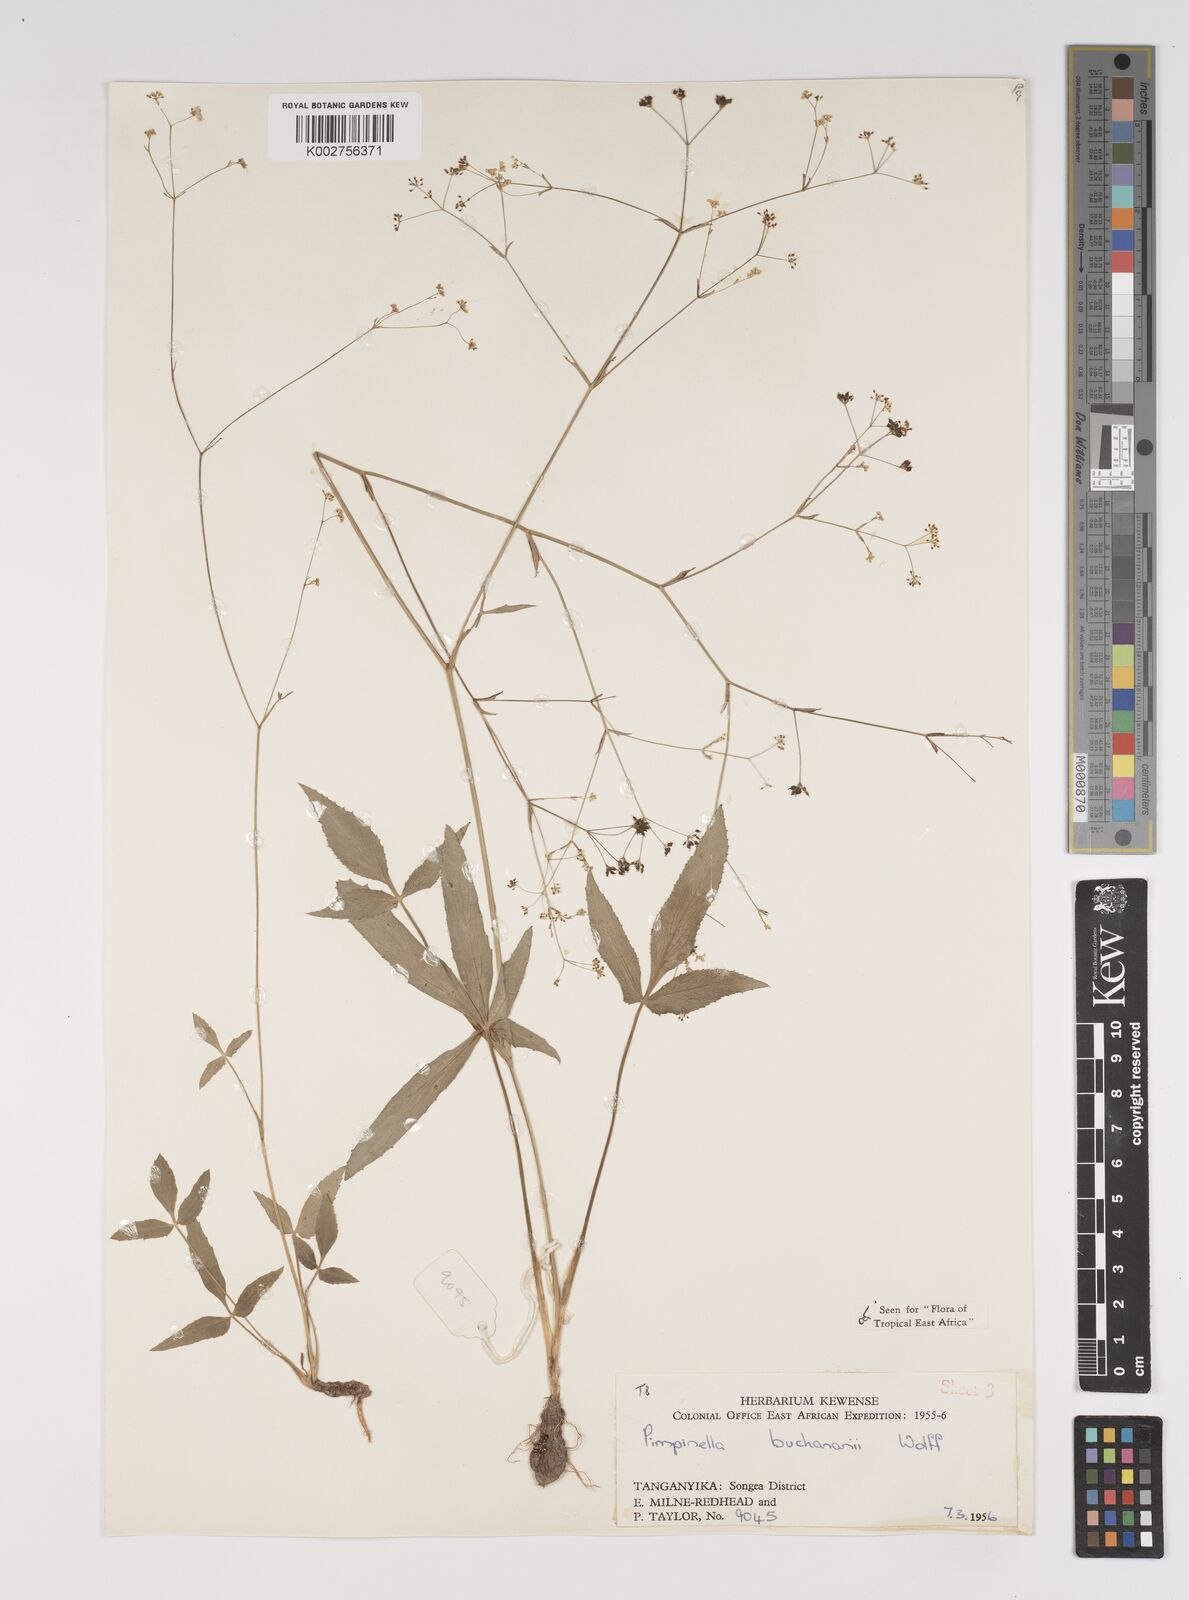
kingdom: Plantae
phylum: Tracheophyta
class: Magnoliopsida
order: Apiales
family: Apiaceae
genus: Pimpinella
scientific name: Pimpinella buchananii
